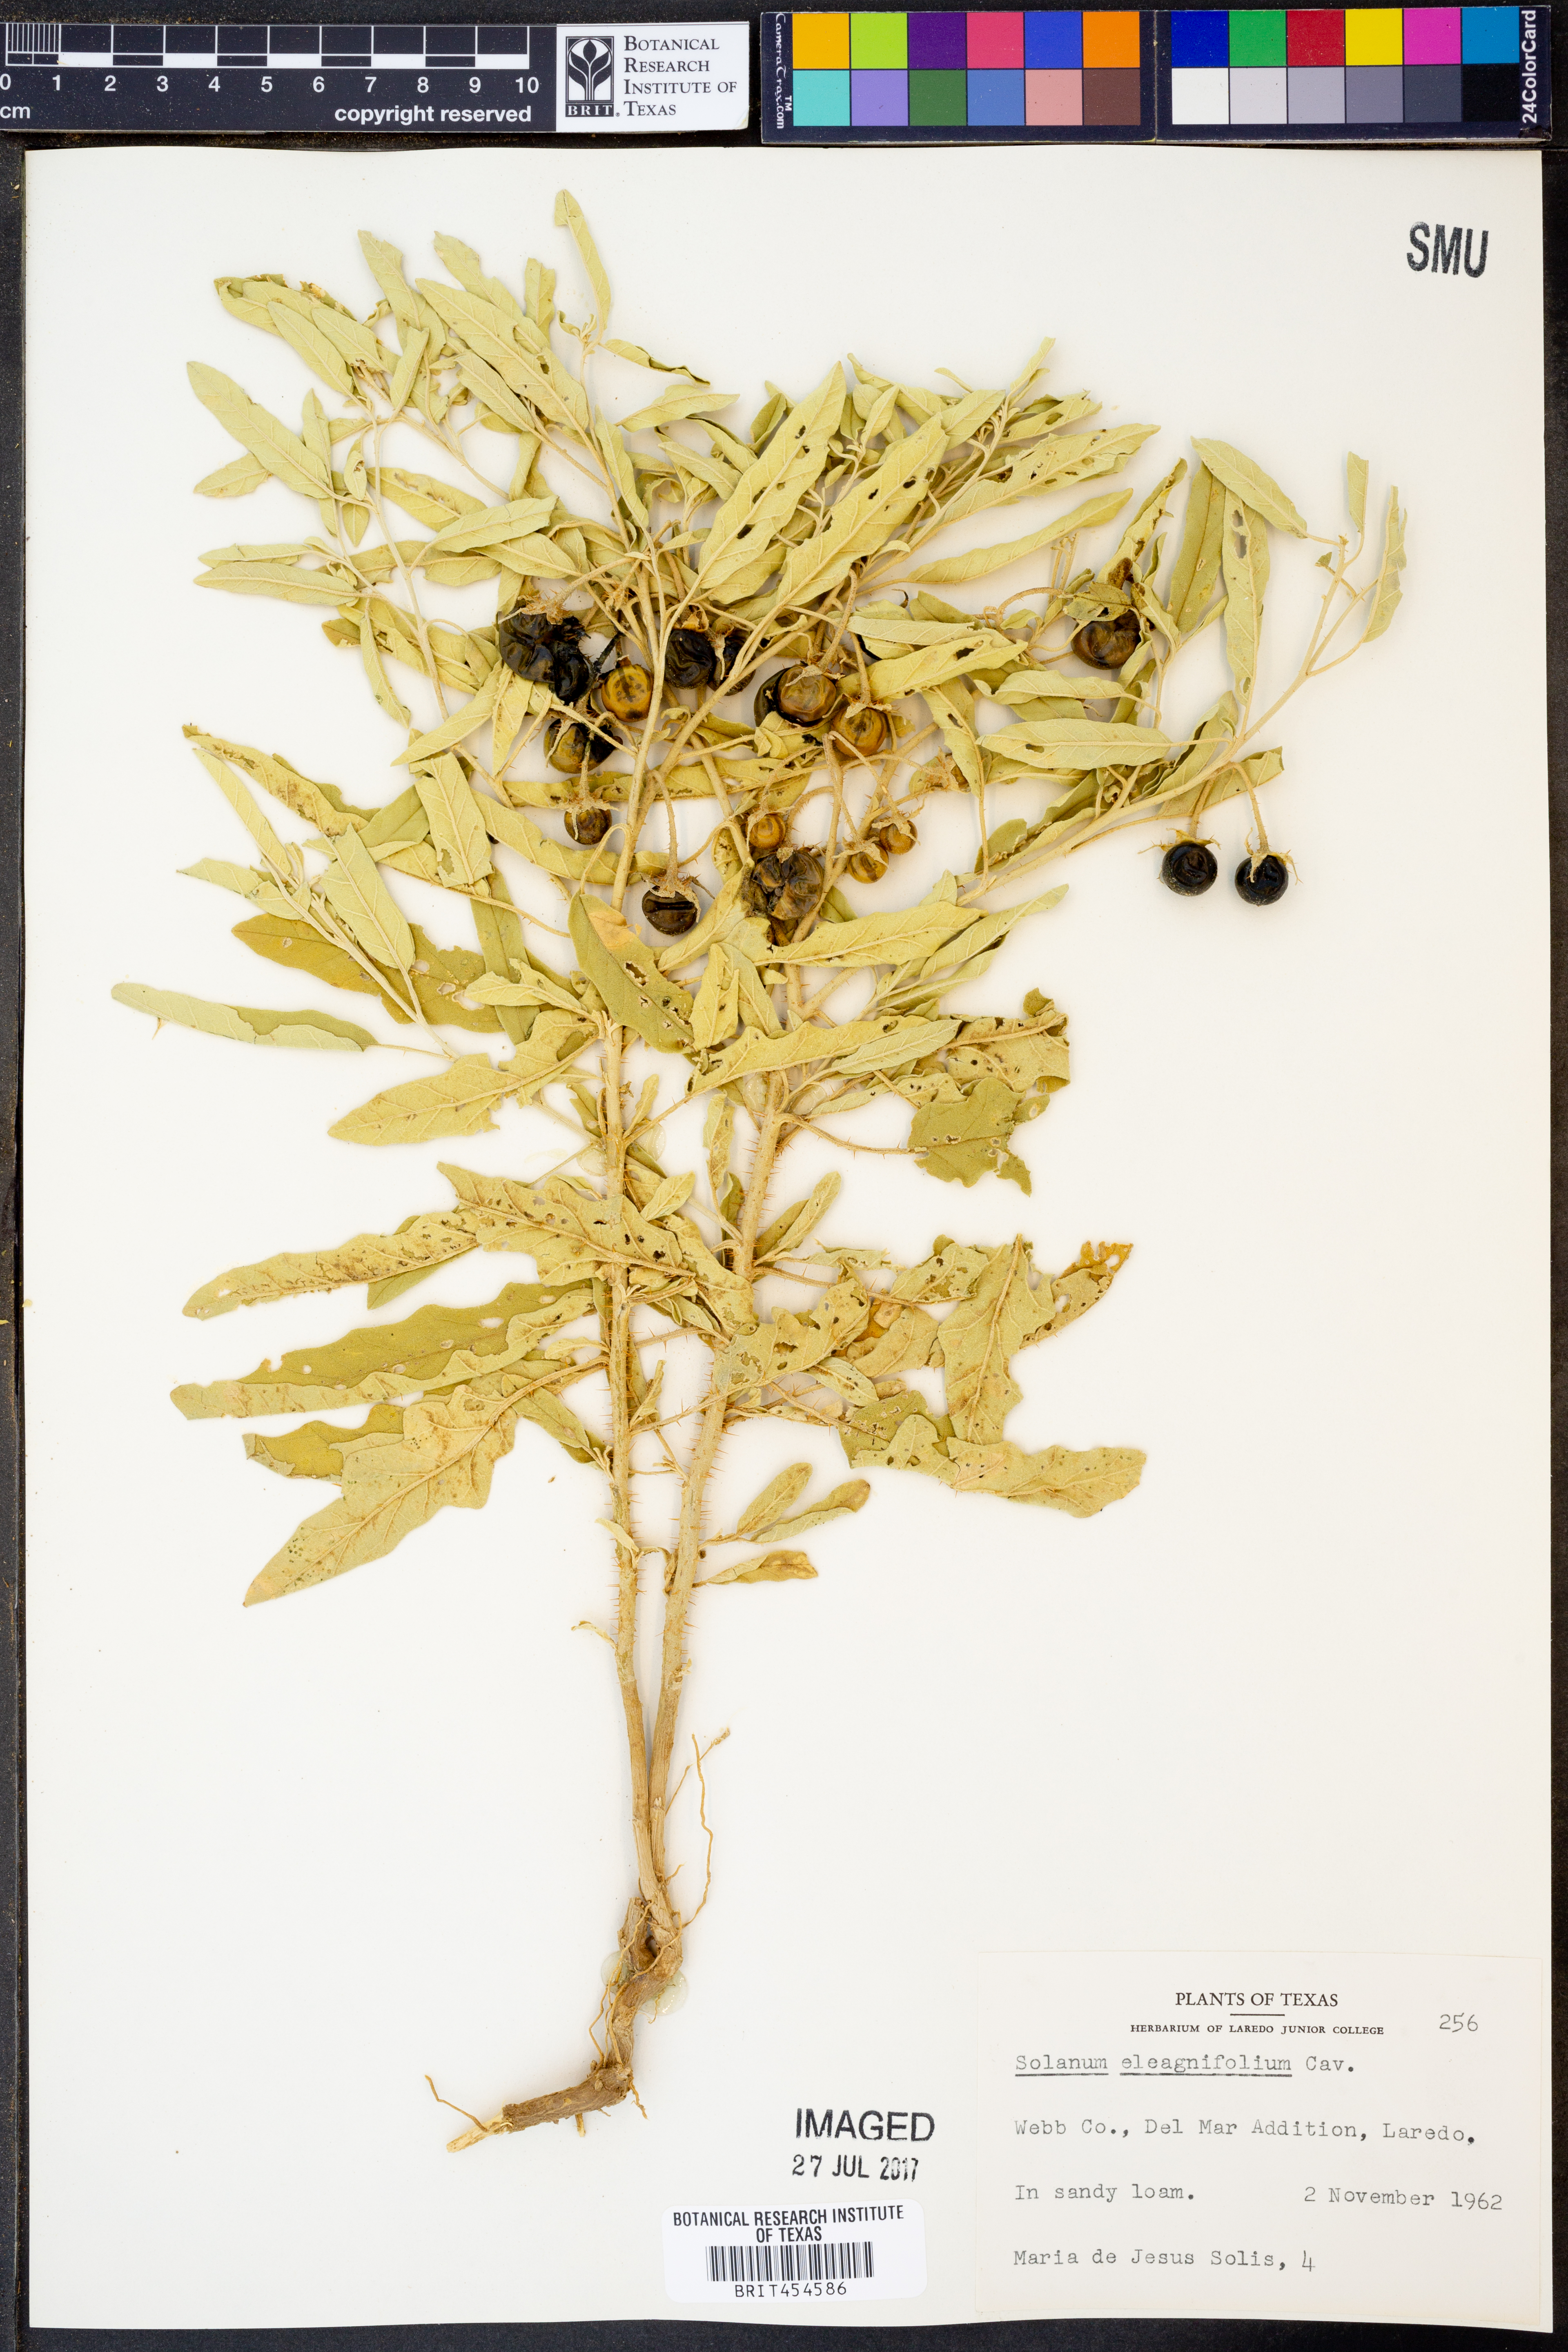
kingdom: Plantae
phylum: Tracheophyta
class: Magnoliopsida
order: Solanales
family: Solanaceae
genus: Solanum
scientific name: Solanum elaeagnifolium
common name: Silverleaf nightshade
